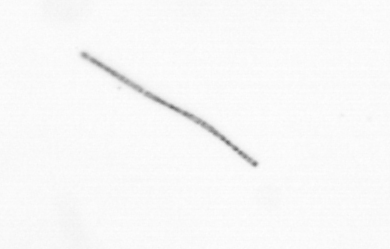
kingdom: Chromista
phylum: Ochrophyta
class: Bacillariophyceae
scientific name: Bacillariophyceae
